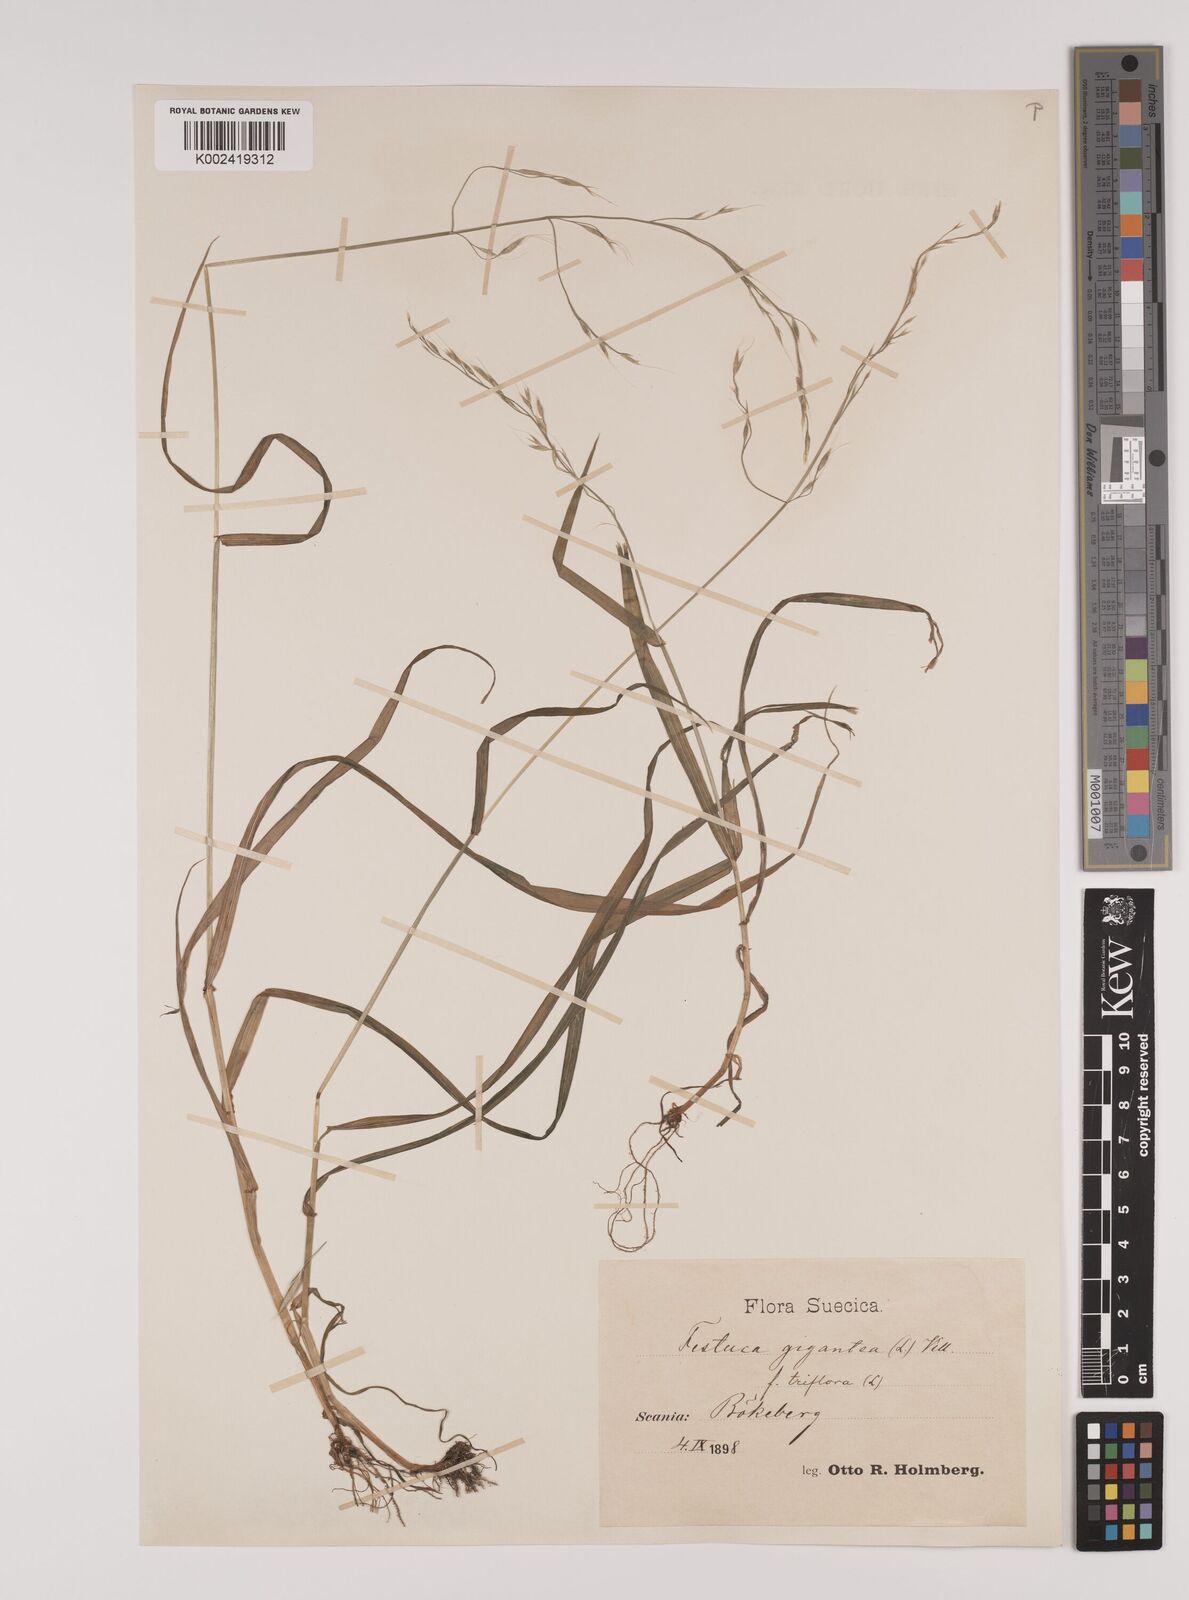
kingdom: Plantae
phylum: Tracheophyta
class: Liliopsida
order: Poales
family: Poaceae
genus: Lolium
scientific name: Lolium giganteum
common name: Giant fescue
